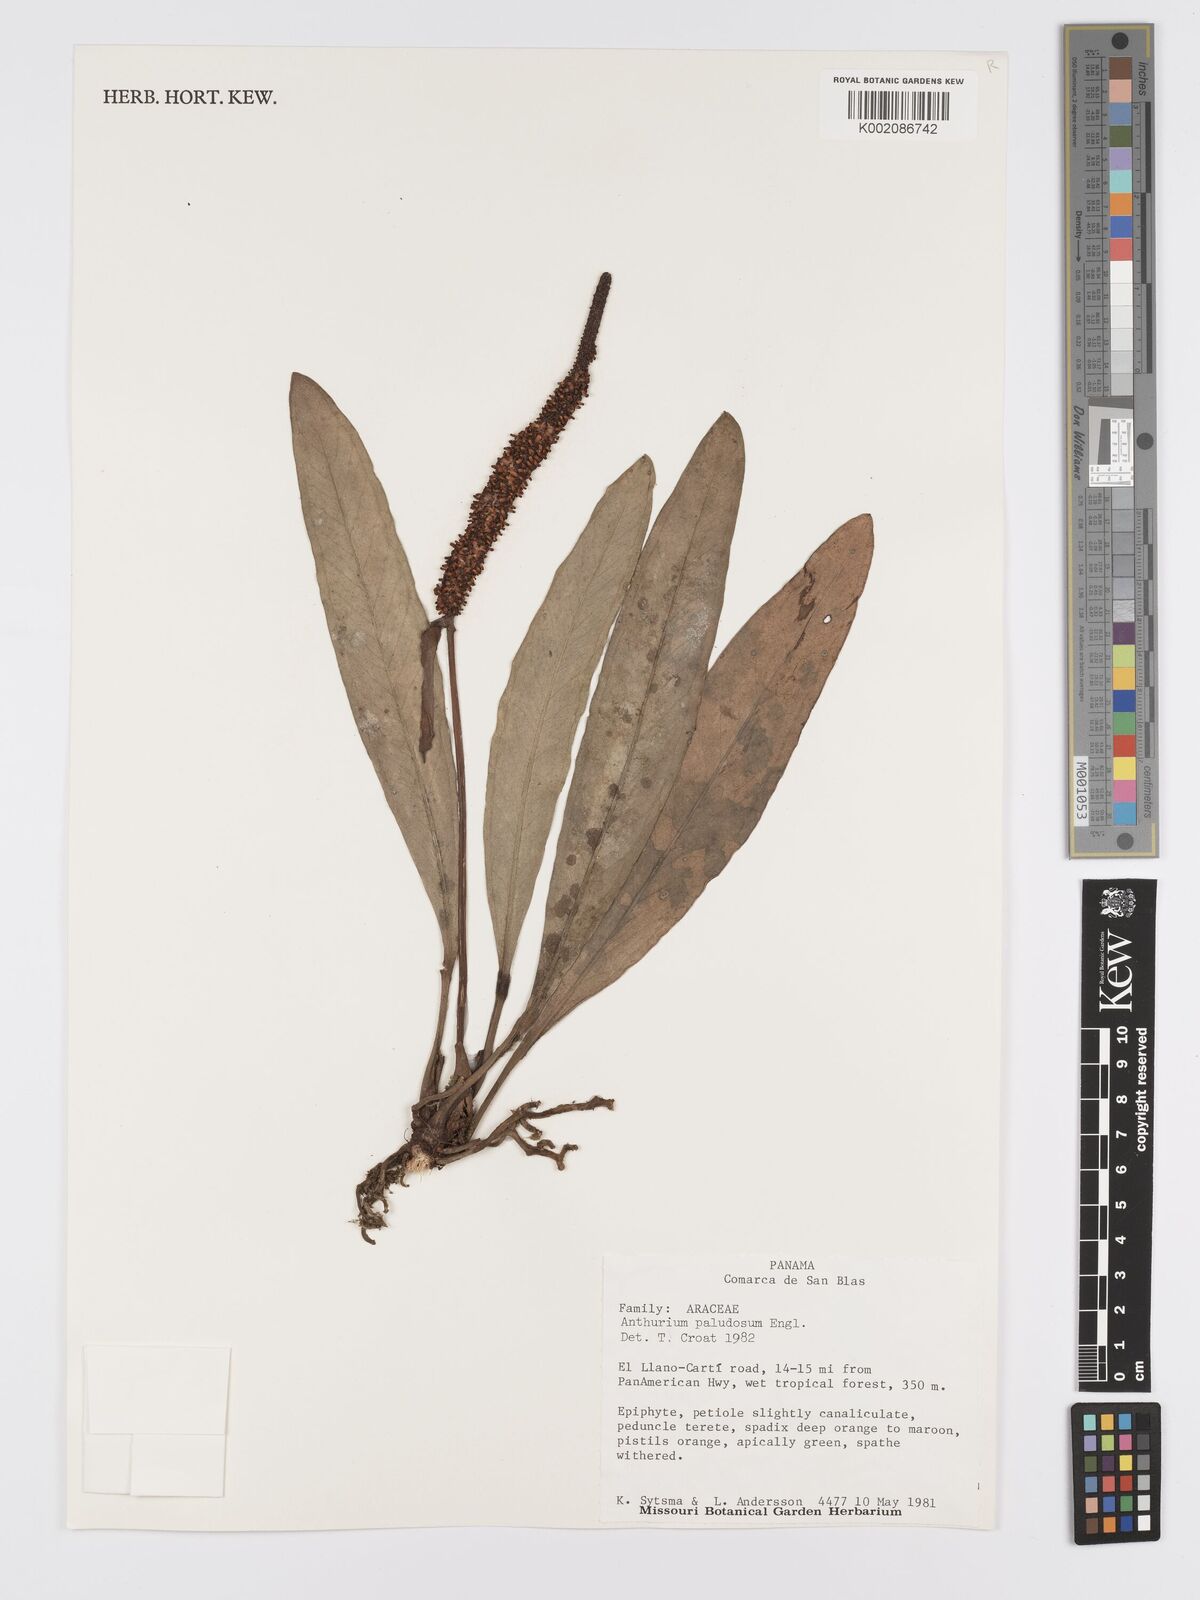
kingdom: Plantae
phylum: Tracheophyta
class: Liliopsida
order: Alismatales
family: Araceae
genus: Anthurium
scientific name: Anthurium paludosum
